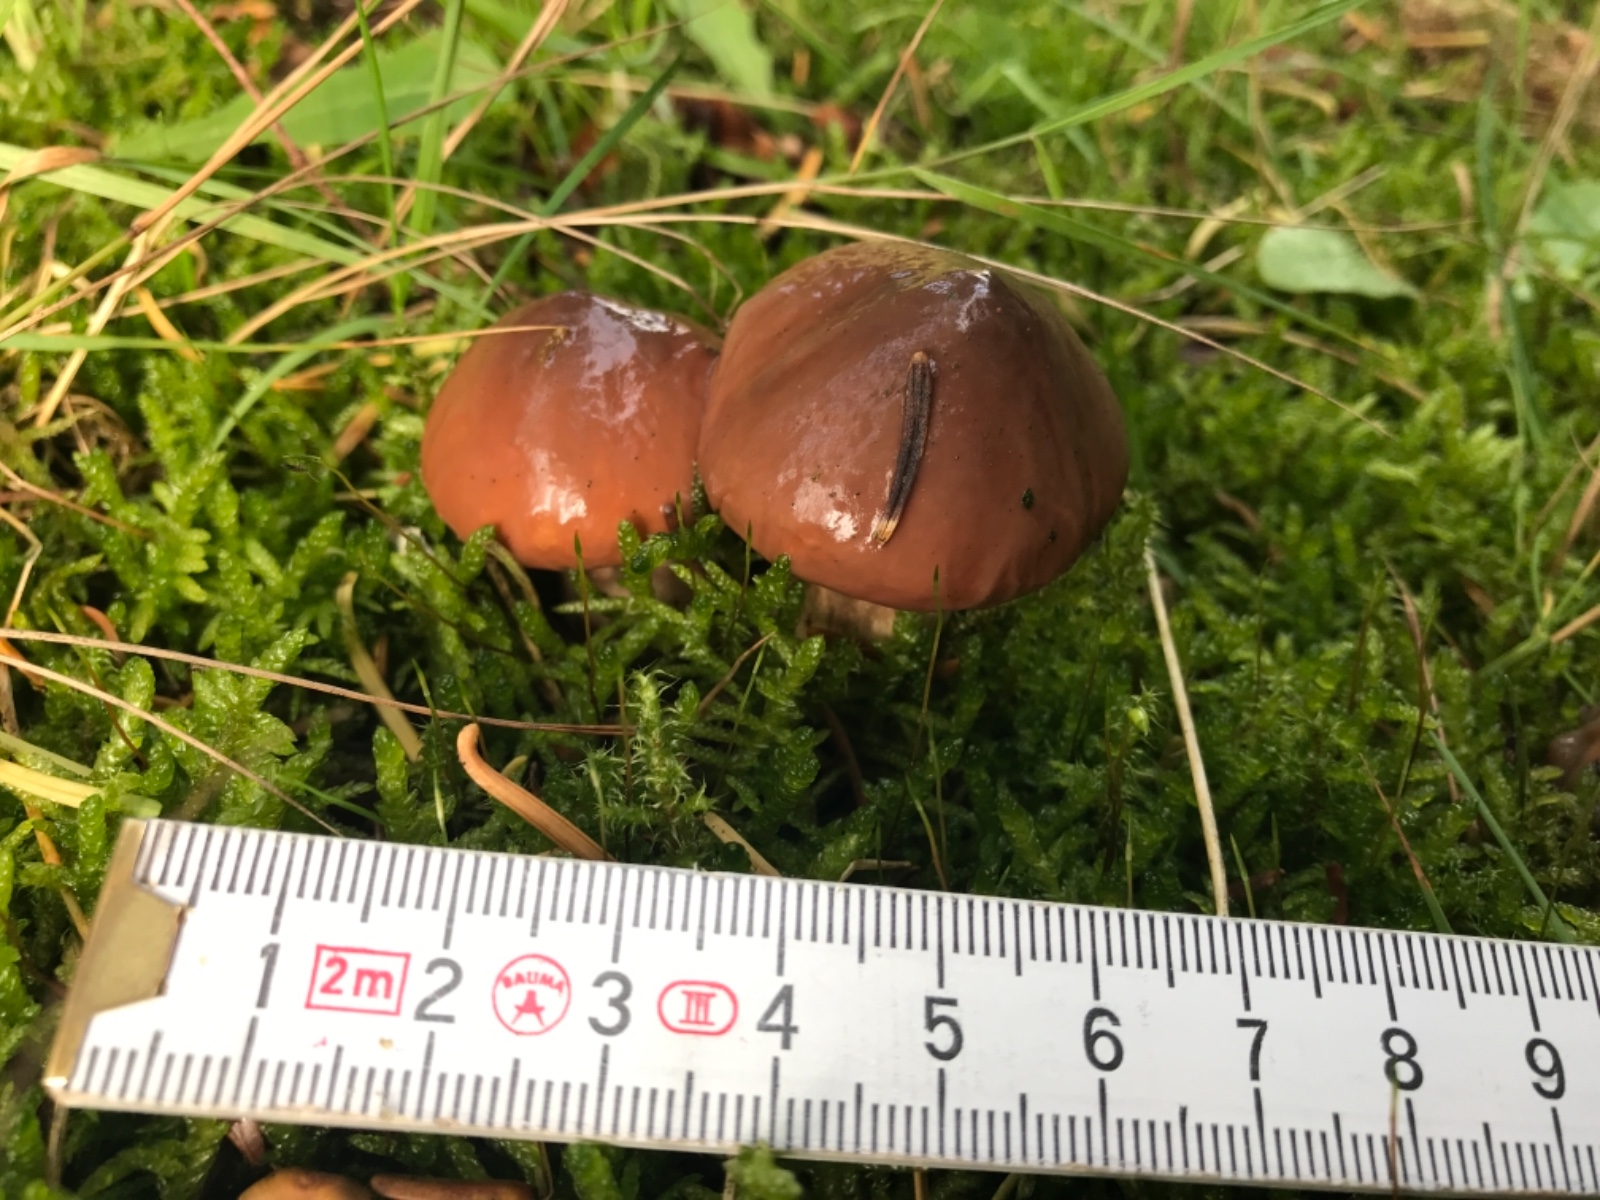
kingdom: Fungi
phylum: Basidiomycota
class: Agaricomycetes
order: Boletales
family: Gomphidiaceae
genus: Gomphidius
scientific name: Gomphidius glutinosus
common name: grå slimslør
